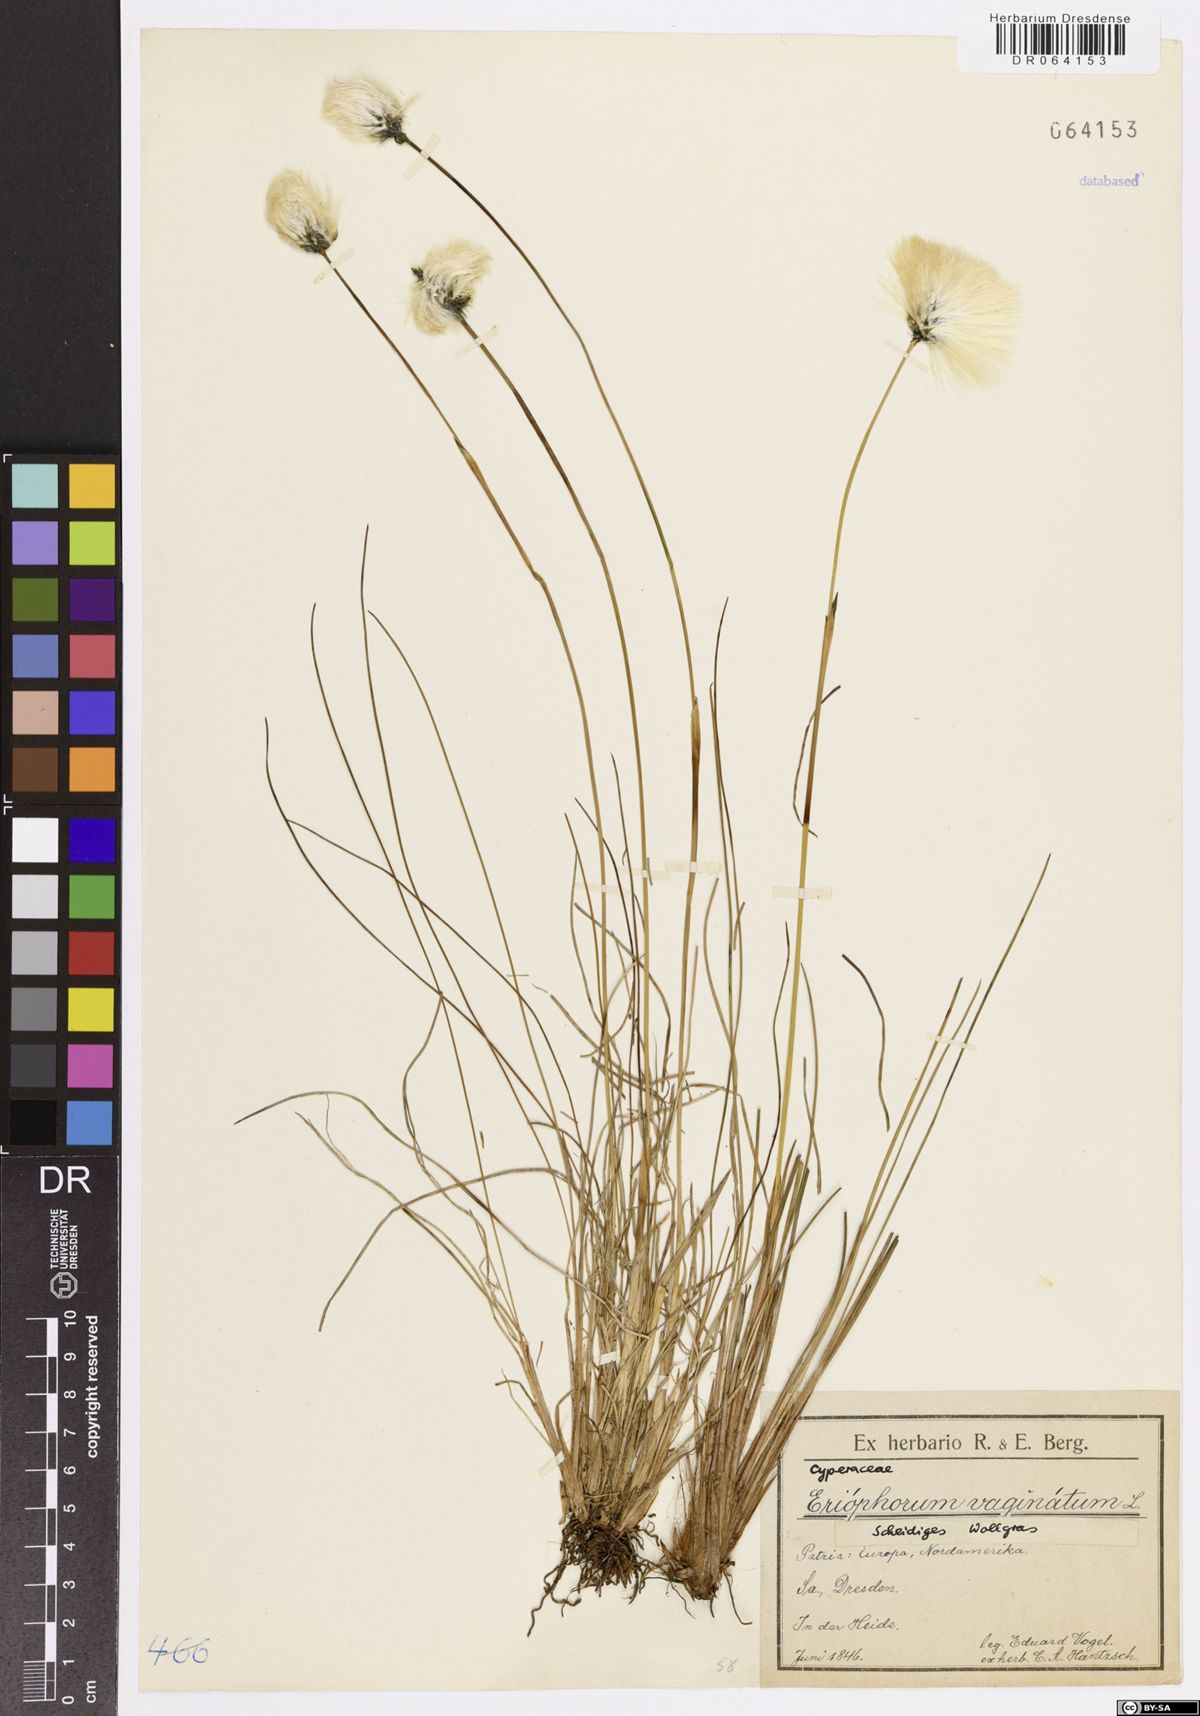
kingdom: Plantae
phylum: Tracheophyta
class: Liliopsida
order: Poales
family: Cyperaceae
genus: Eriophorum
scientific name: Eriophorum vaginatum
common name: Hare's-tail cottongrass
